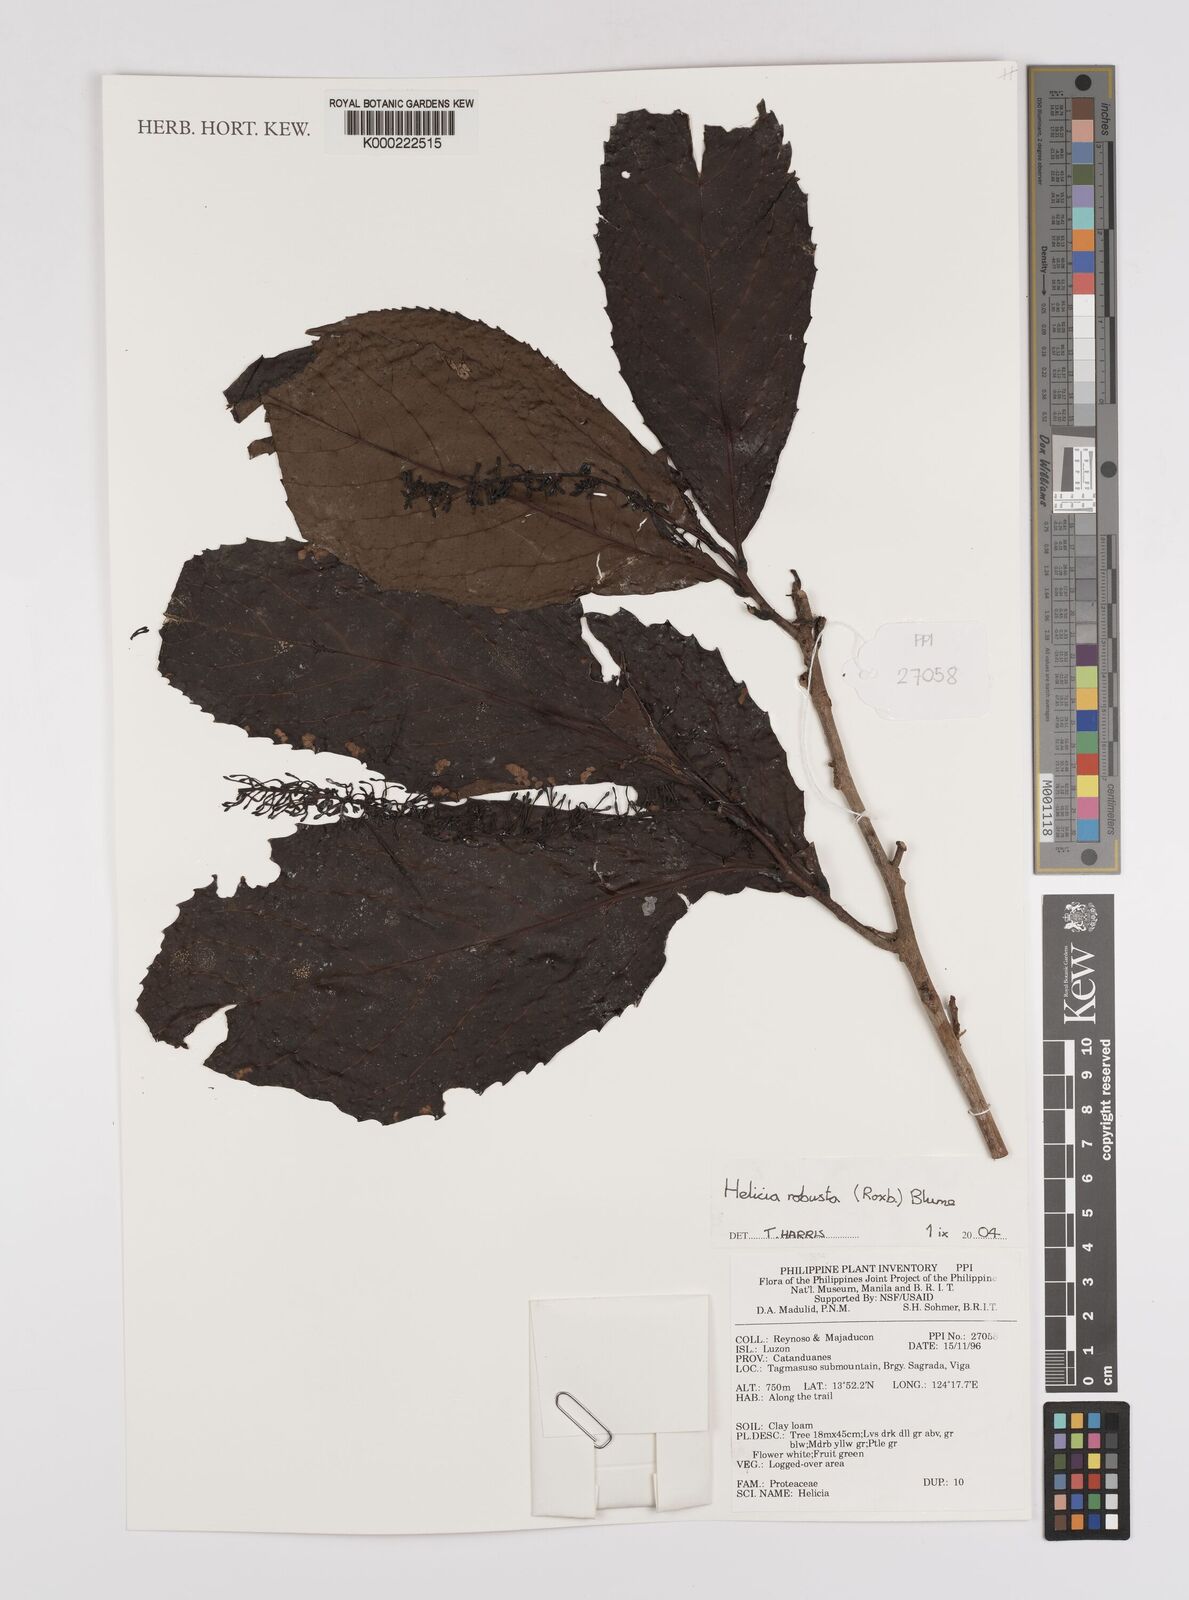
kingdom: Plantae
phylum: Tracheophyta
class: Magnoliopsida
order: Proteales
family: Proteaceae
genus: Helicia
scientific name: Helicia robusta
